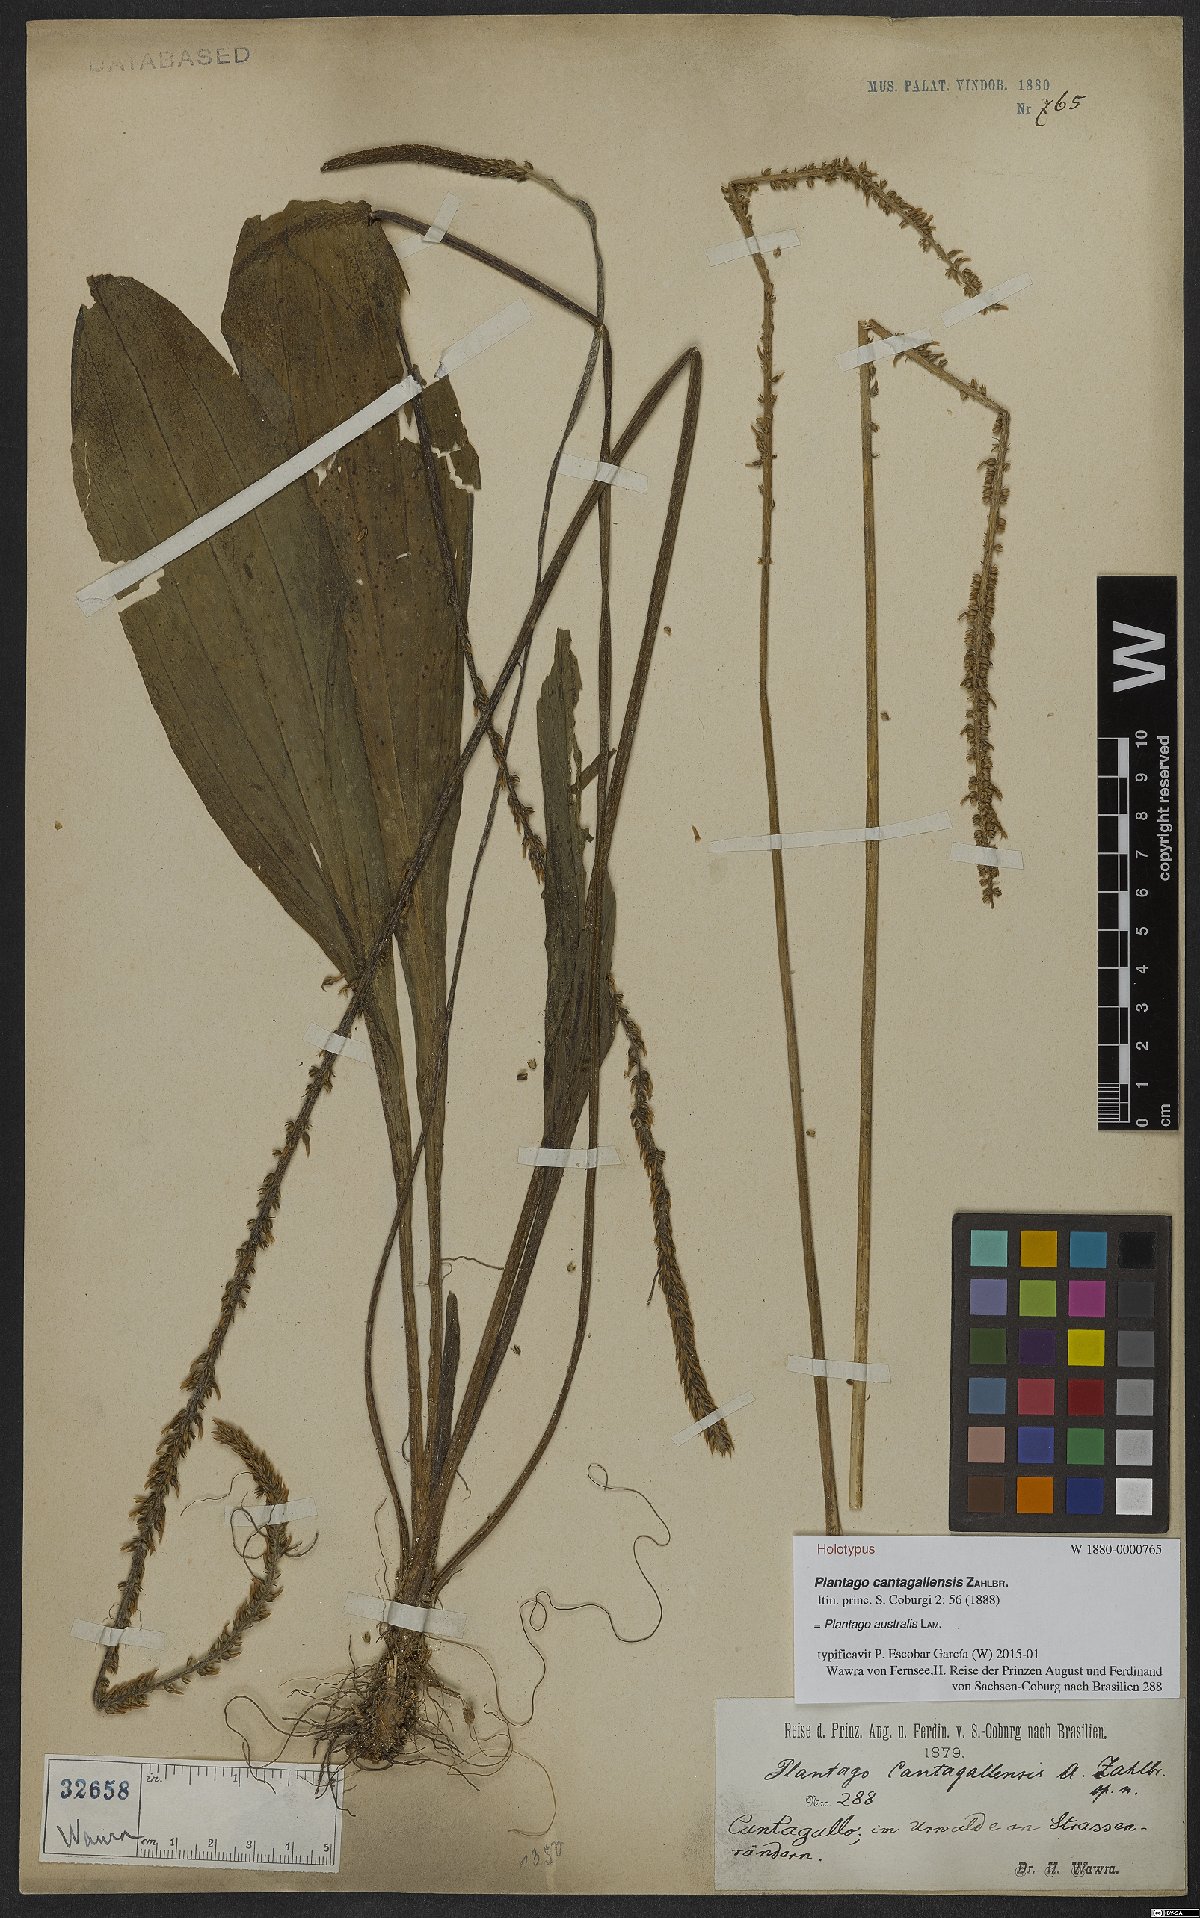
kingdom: Plantae
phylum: Tracheophyta
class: Magnoliopsida
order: Lamiales
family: Plantaginaceae
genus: Plantago
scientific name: Plantago australis
